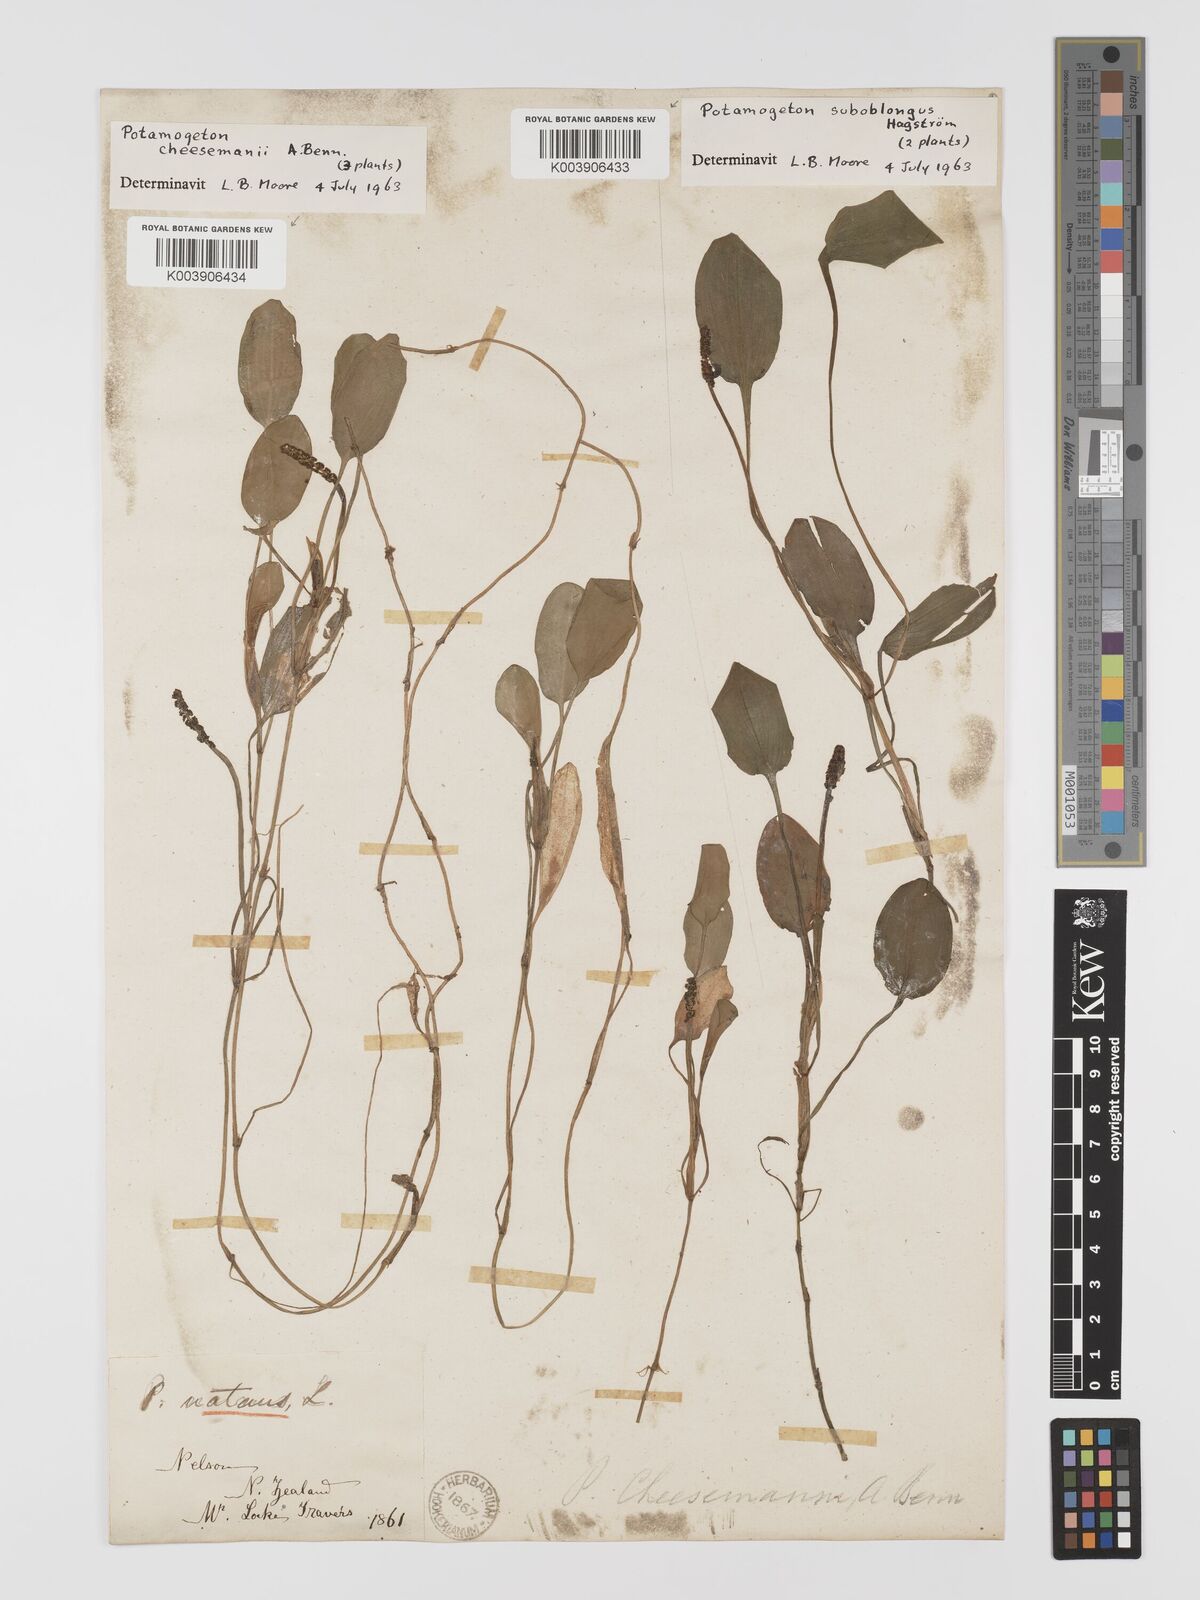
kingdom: Plantae
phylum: Tracheophyta
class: Liliopsida
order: Alismatales
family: Potamogetonaceae
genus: Potamogeton
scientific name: Potamogeton cheesemanii
